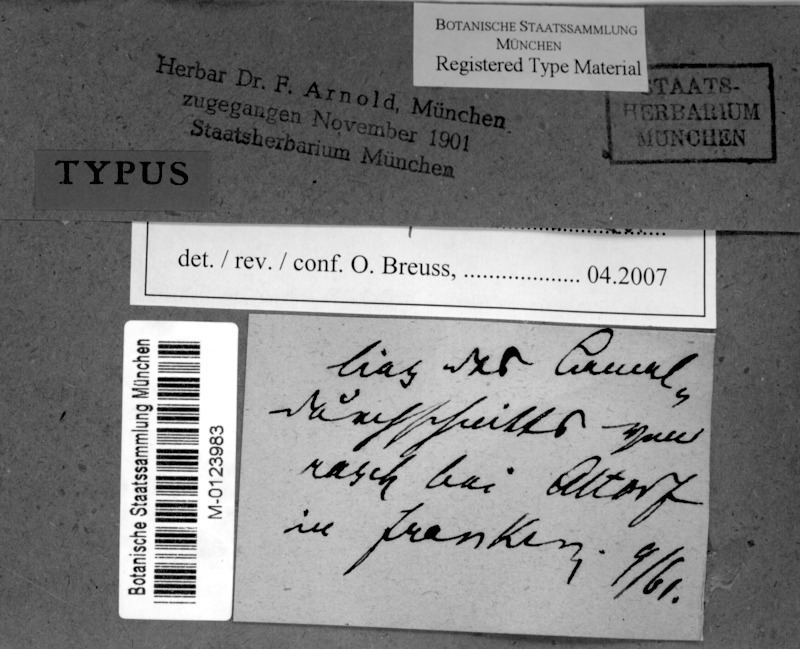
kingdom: Fungi
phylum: Ascomycota
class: Eurotiomycetes
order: Verrucariales
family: Verrucariaceae
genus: Verrucaria
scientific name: Verrucaria fuscatula
